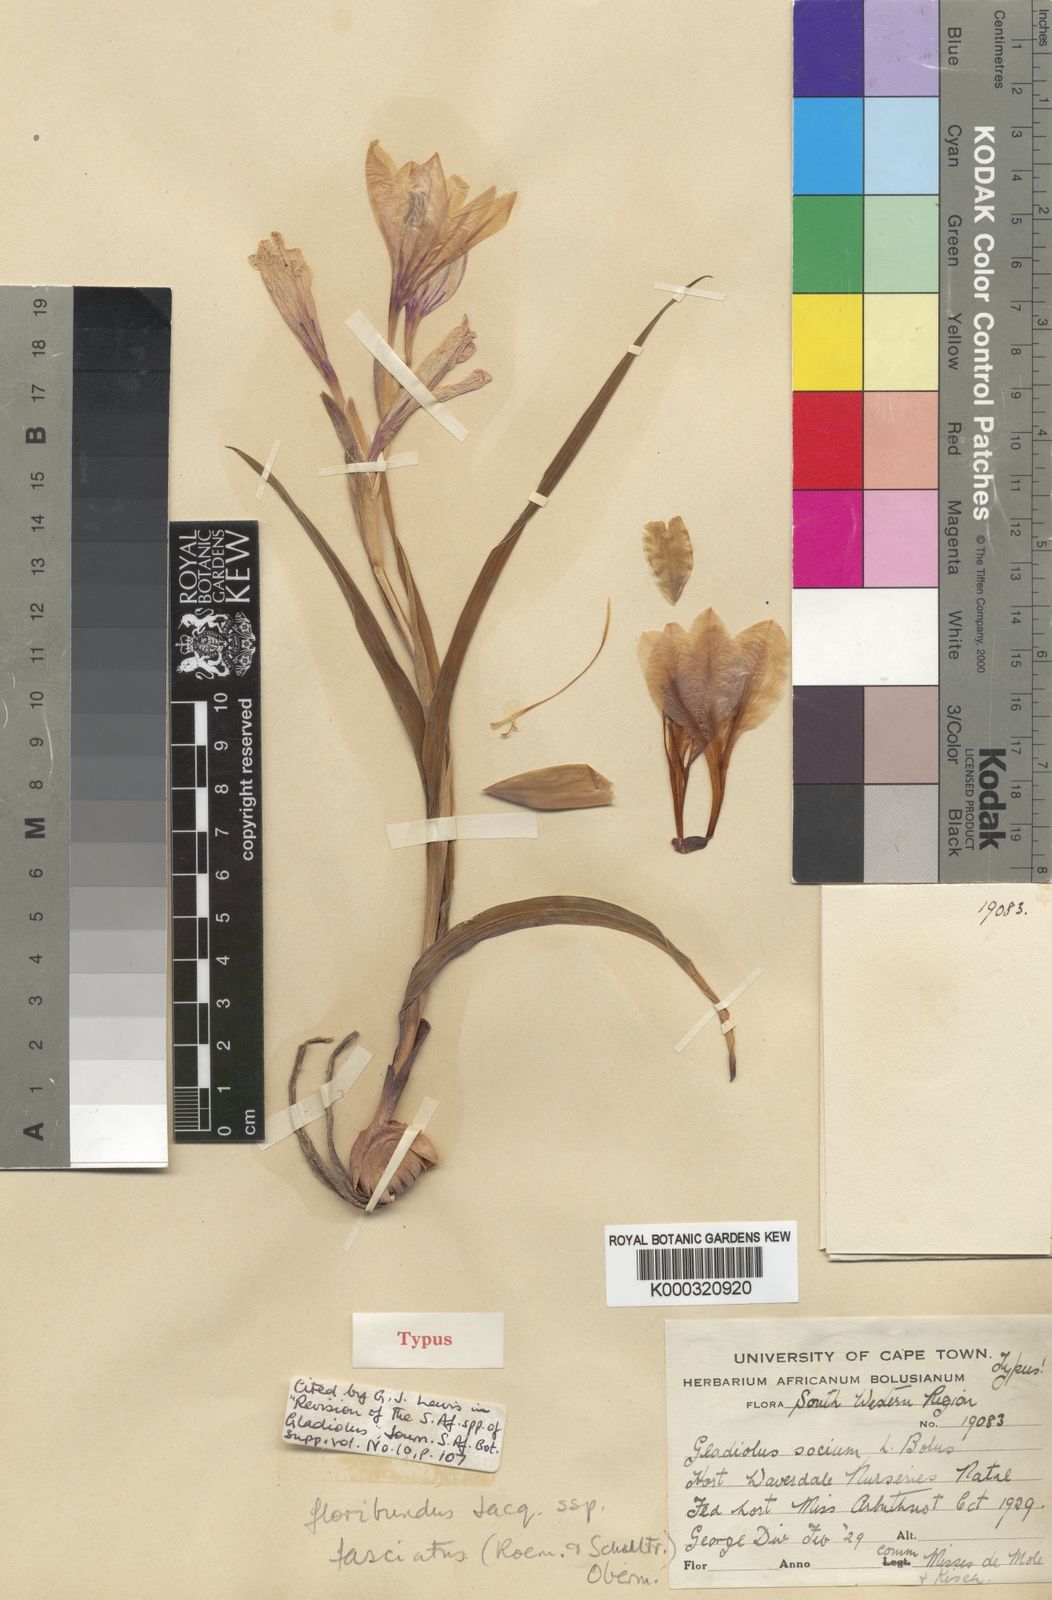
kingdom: Plantae
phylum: Tracheophyta
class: Liliopsida
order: Asparagales
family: Iridaceae
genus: Gladiolus
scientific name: Gladiolus grandiflorus
